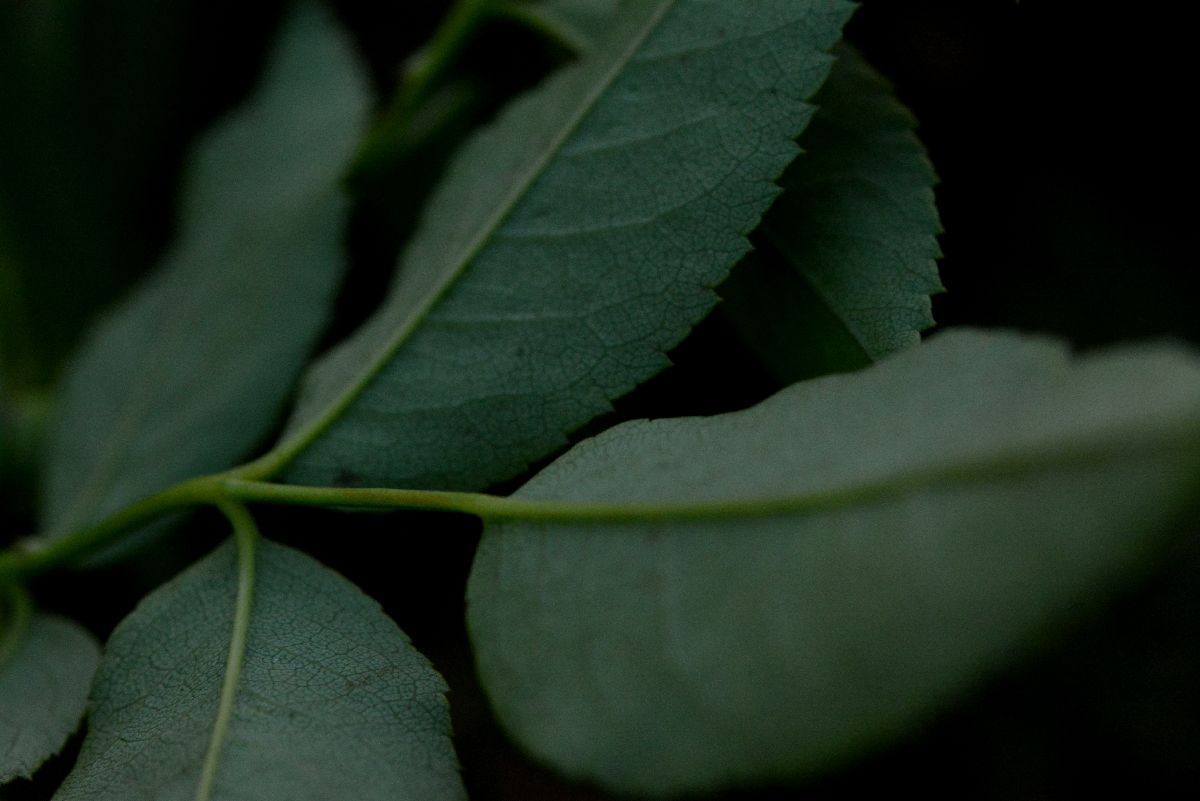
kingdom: Plantae
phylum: Tracheophyta
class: Magnoliopsida
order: Rosales
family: Rosaceae
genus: Rosa
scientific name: Rosa canina
